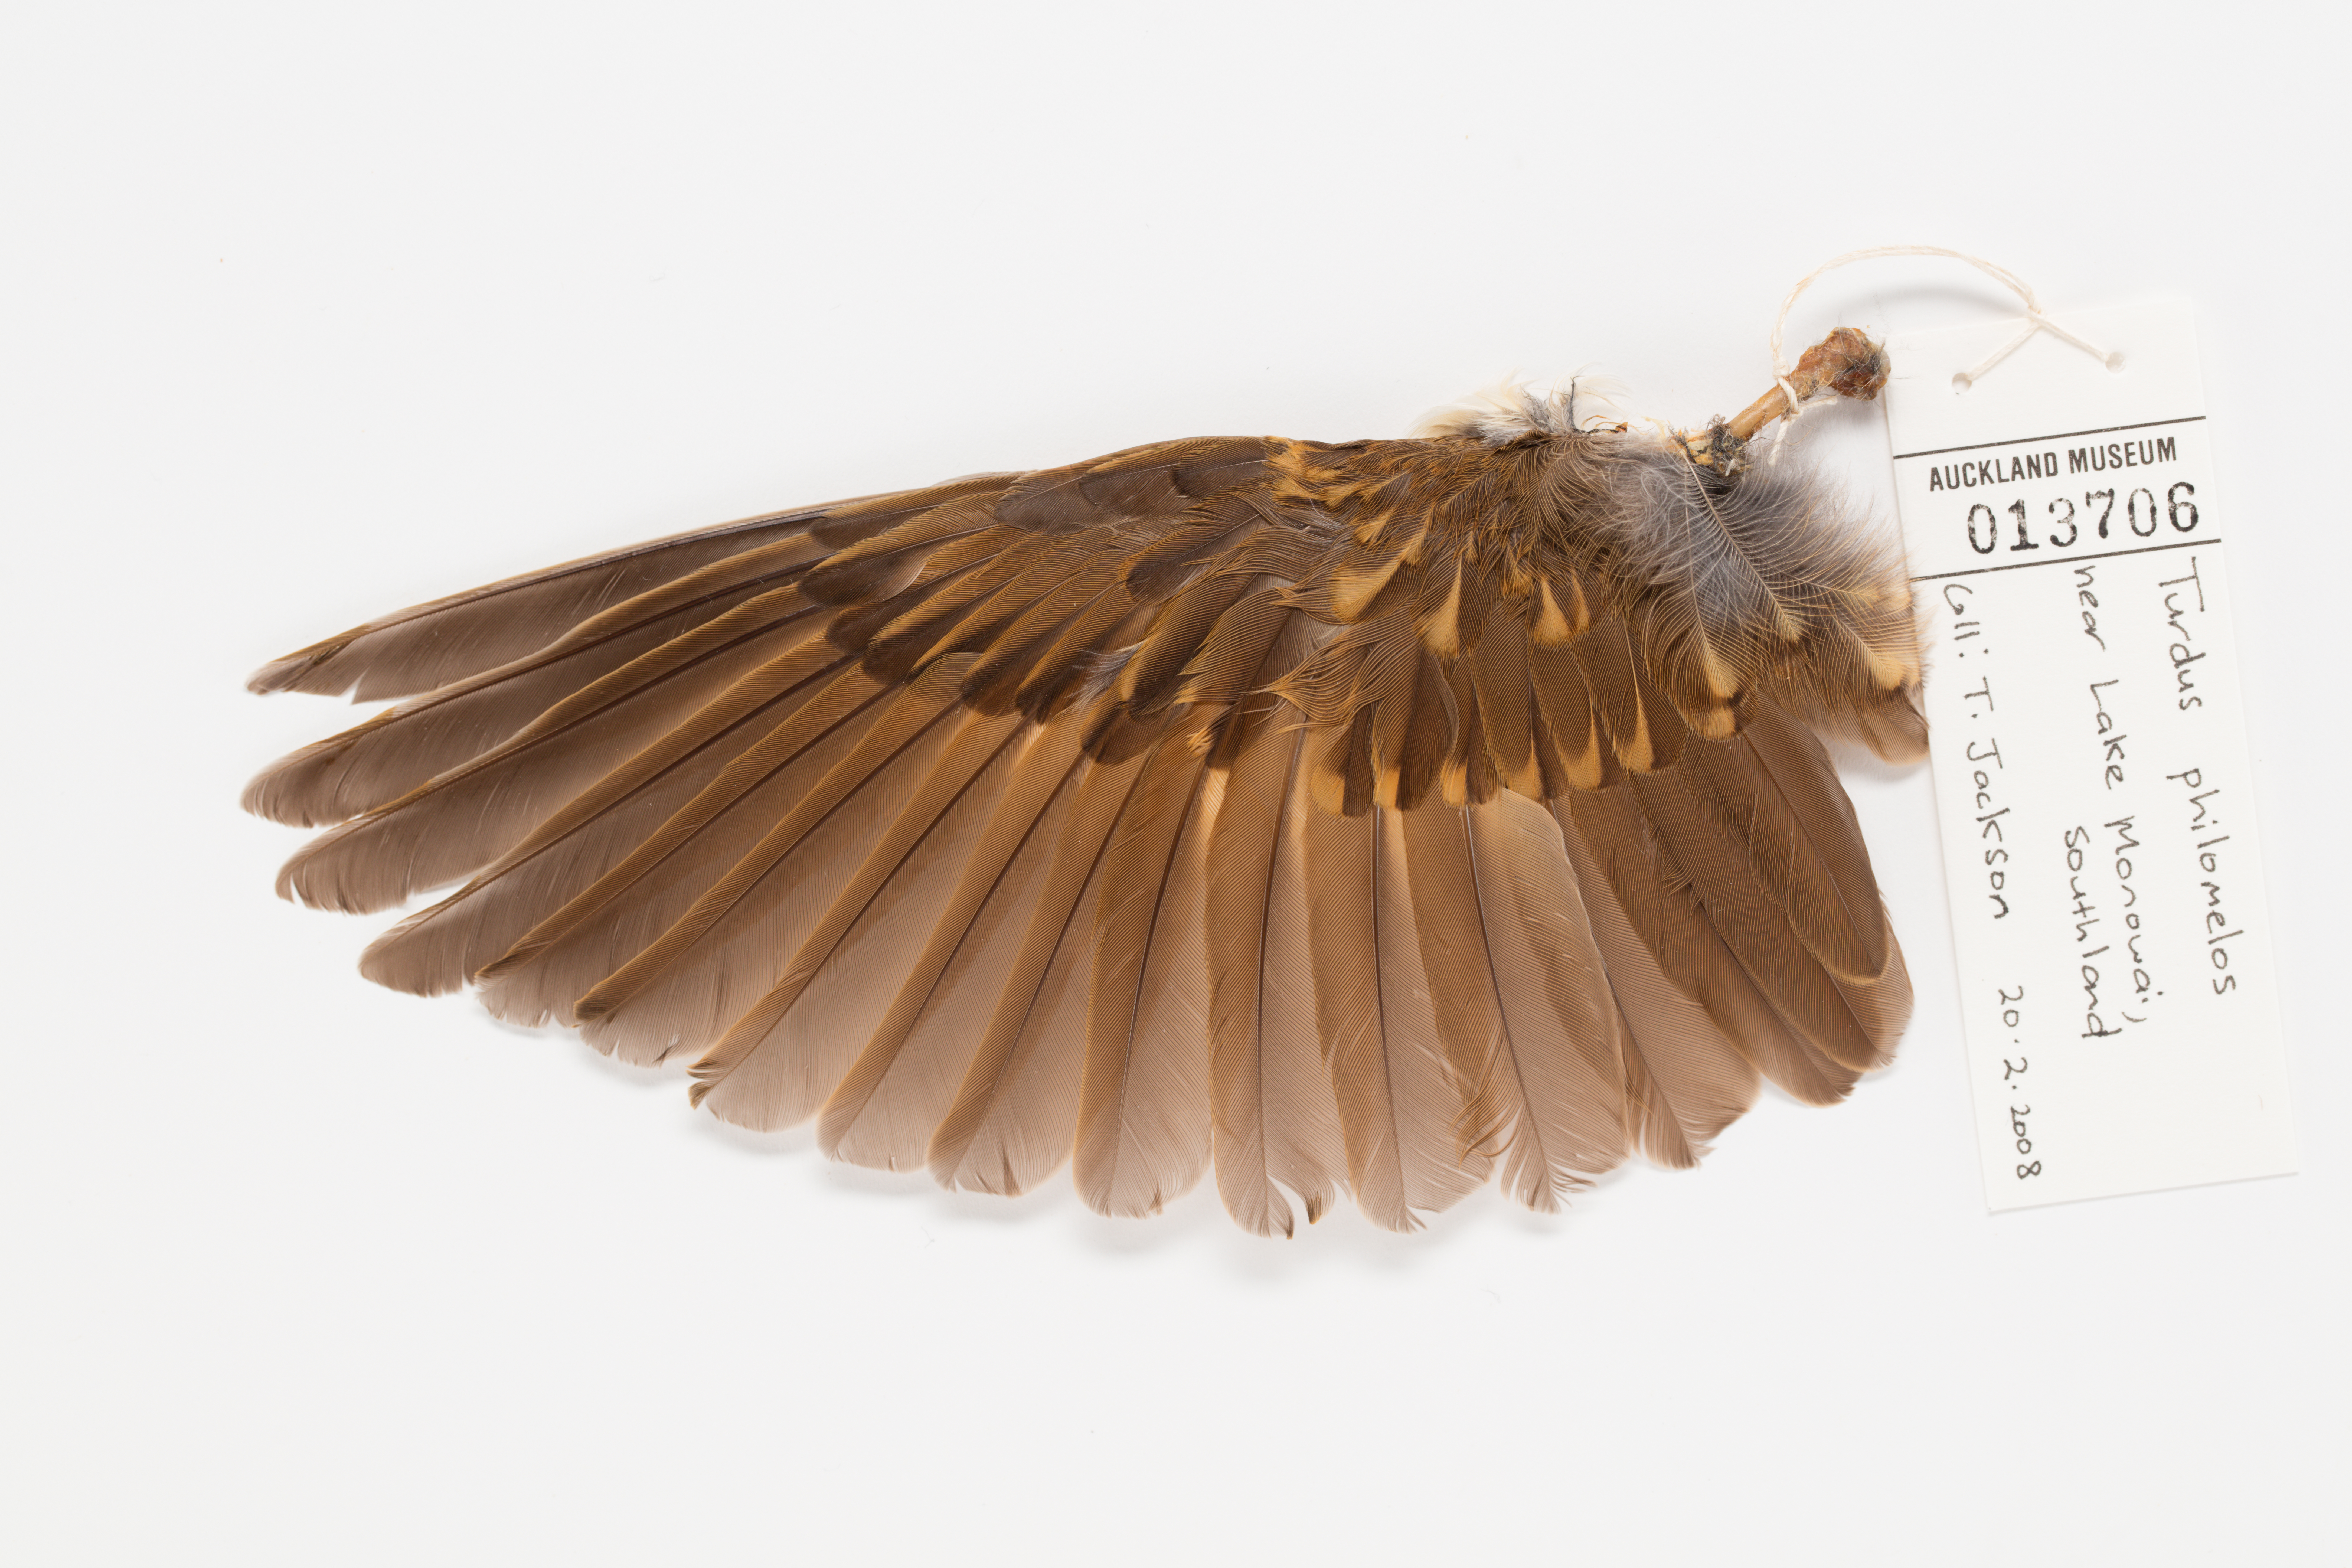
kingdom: Animalia
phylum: Chordata
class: Aves
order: Passeriformes
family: Turdidae
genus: Turdus
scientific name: Turdus philomelos
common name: Song thrush
